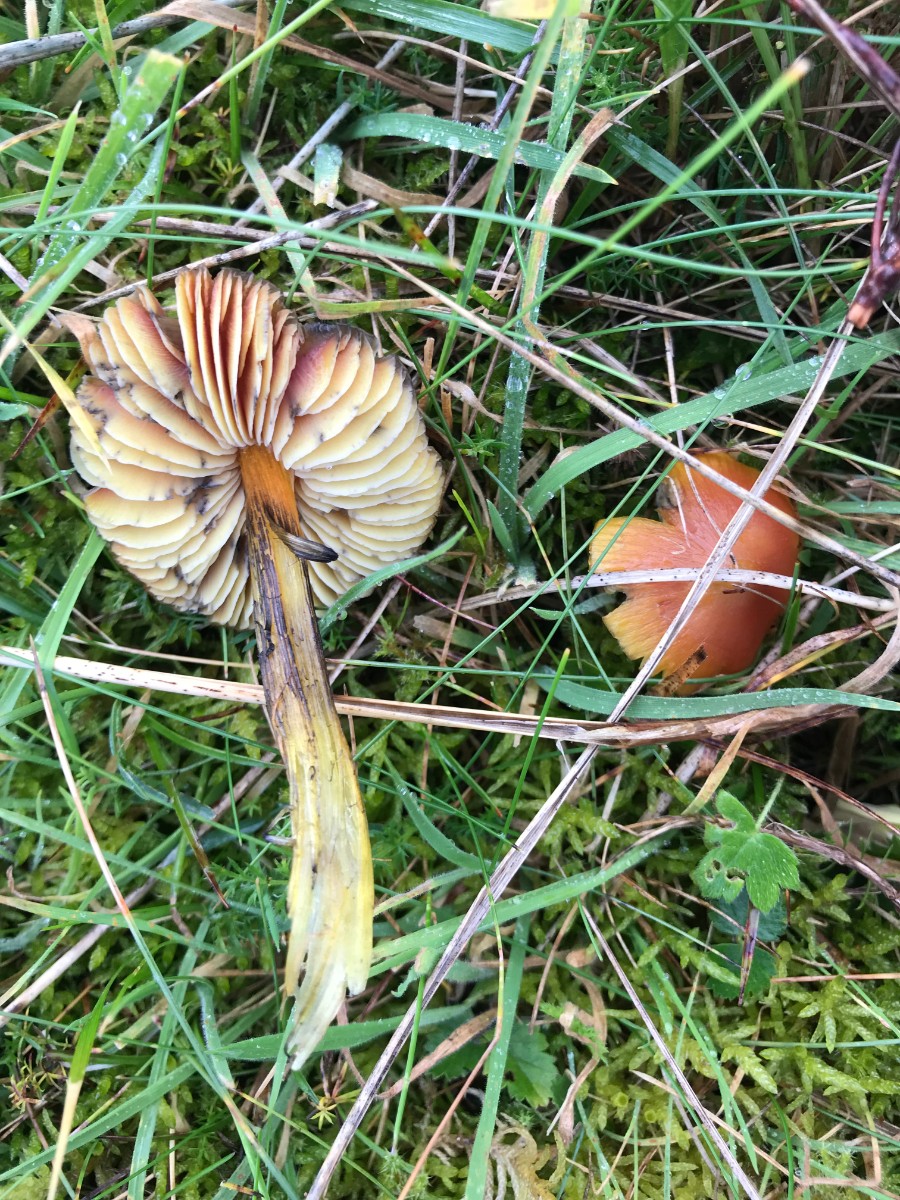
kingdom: Fungi
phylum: Basidiomycota
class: Agaricomycetes
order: Agaricales
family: Hygrophoraceae
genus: Hygrocybe
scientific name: Hygrocybe conica
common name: kegle-vokshat
